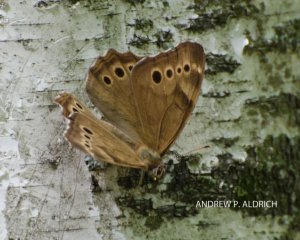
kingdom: Animalia
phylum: Arthropoda
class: Insecta
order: Lepidoptera
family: Nymphalidae
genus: Lethe
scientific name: Lethe eurydice
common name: Eyed Brown
